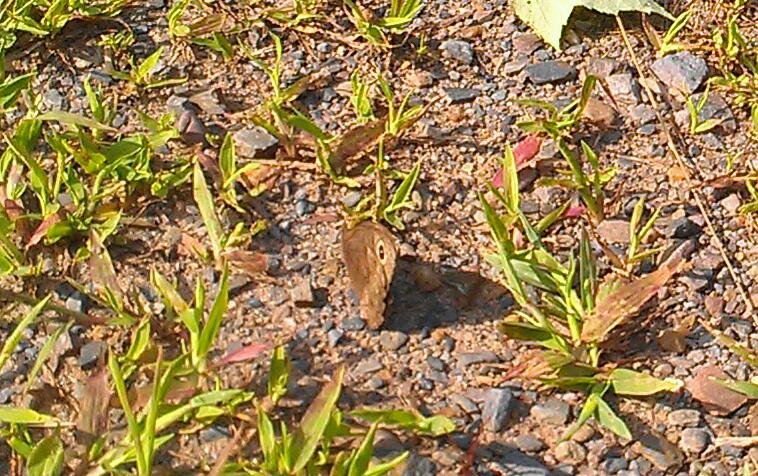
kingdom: Animalia
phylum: Arthropoda
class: Insecta
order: Lepidoptera
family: Nymphalidae
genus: Cercyonis
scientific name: Cercyonis pegala
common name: Common Wood-Nymph
